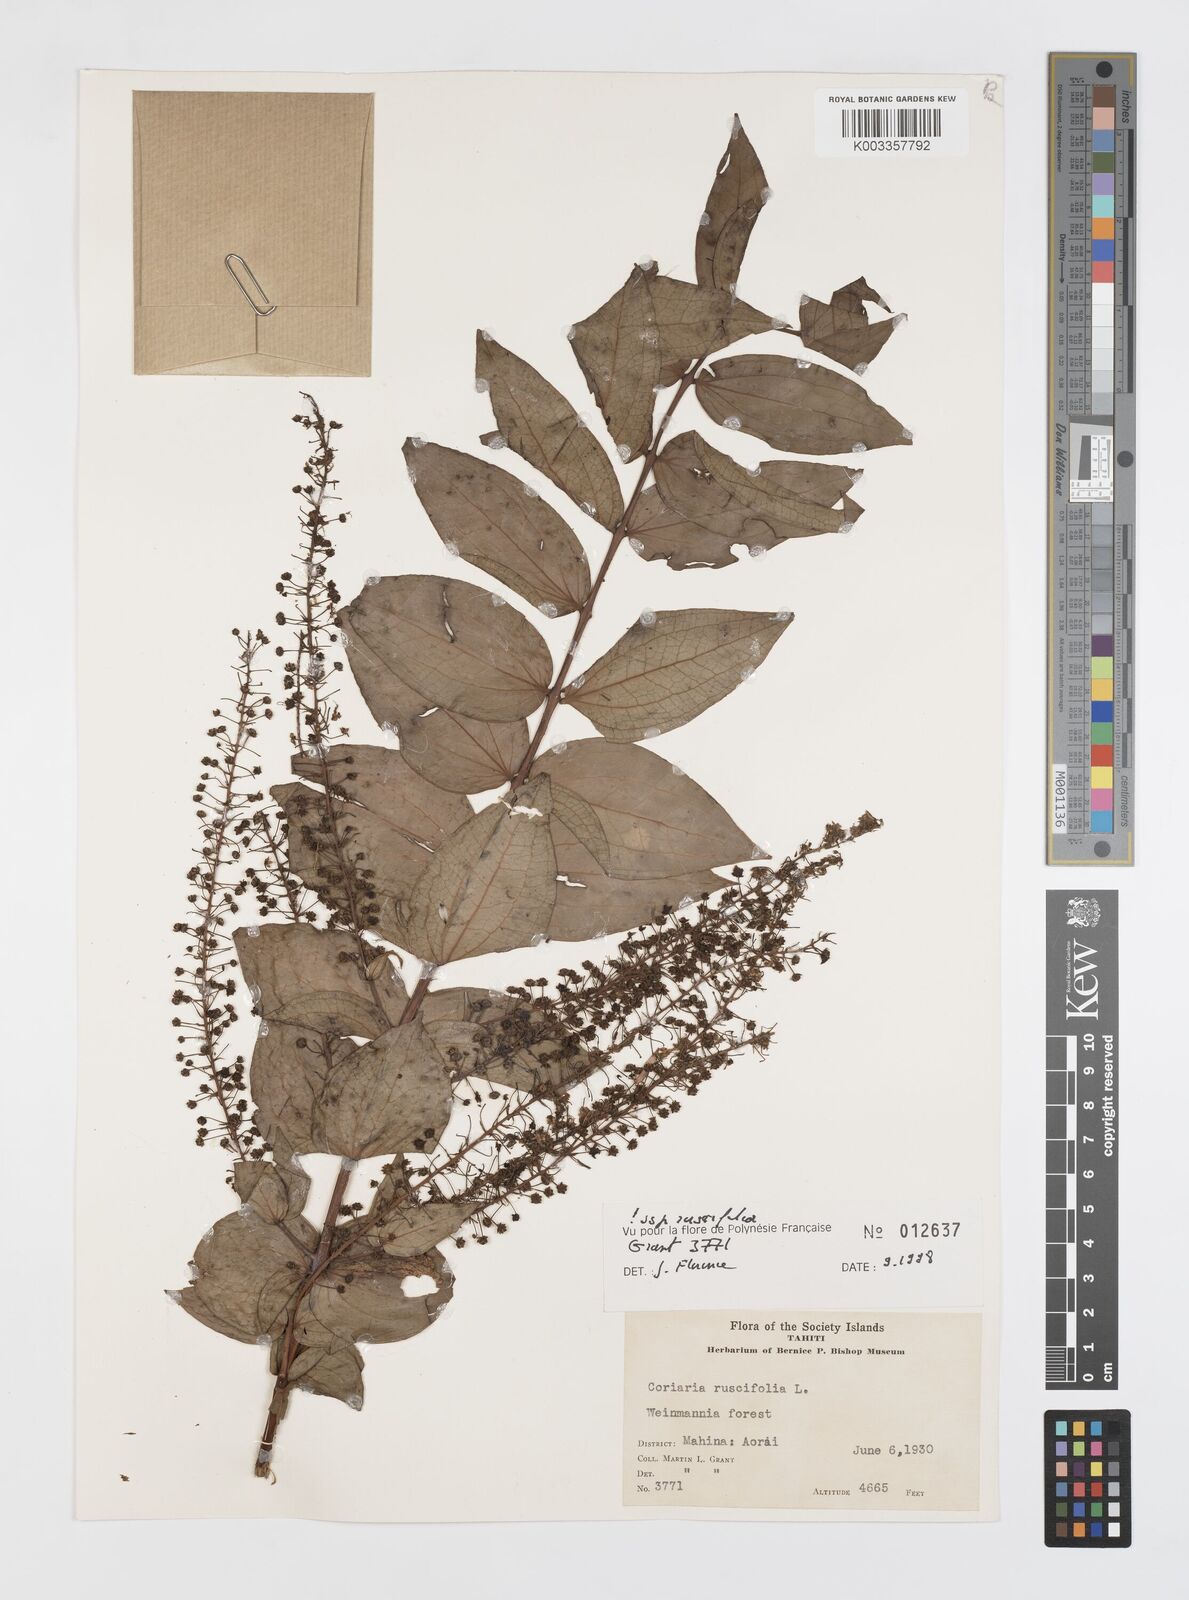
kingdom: Plantae
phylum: Tracheophyta
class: Magnoliopsida
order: Cucurbitales
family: Coriariaceae
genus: Coriaria
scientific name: Coriaria ruscifolia
